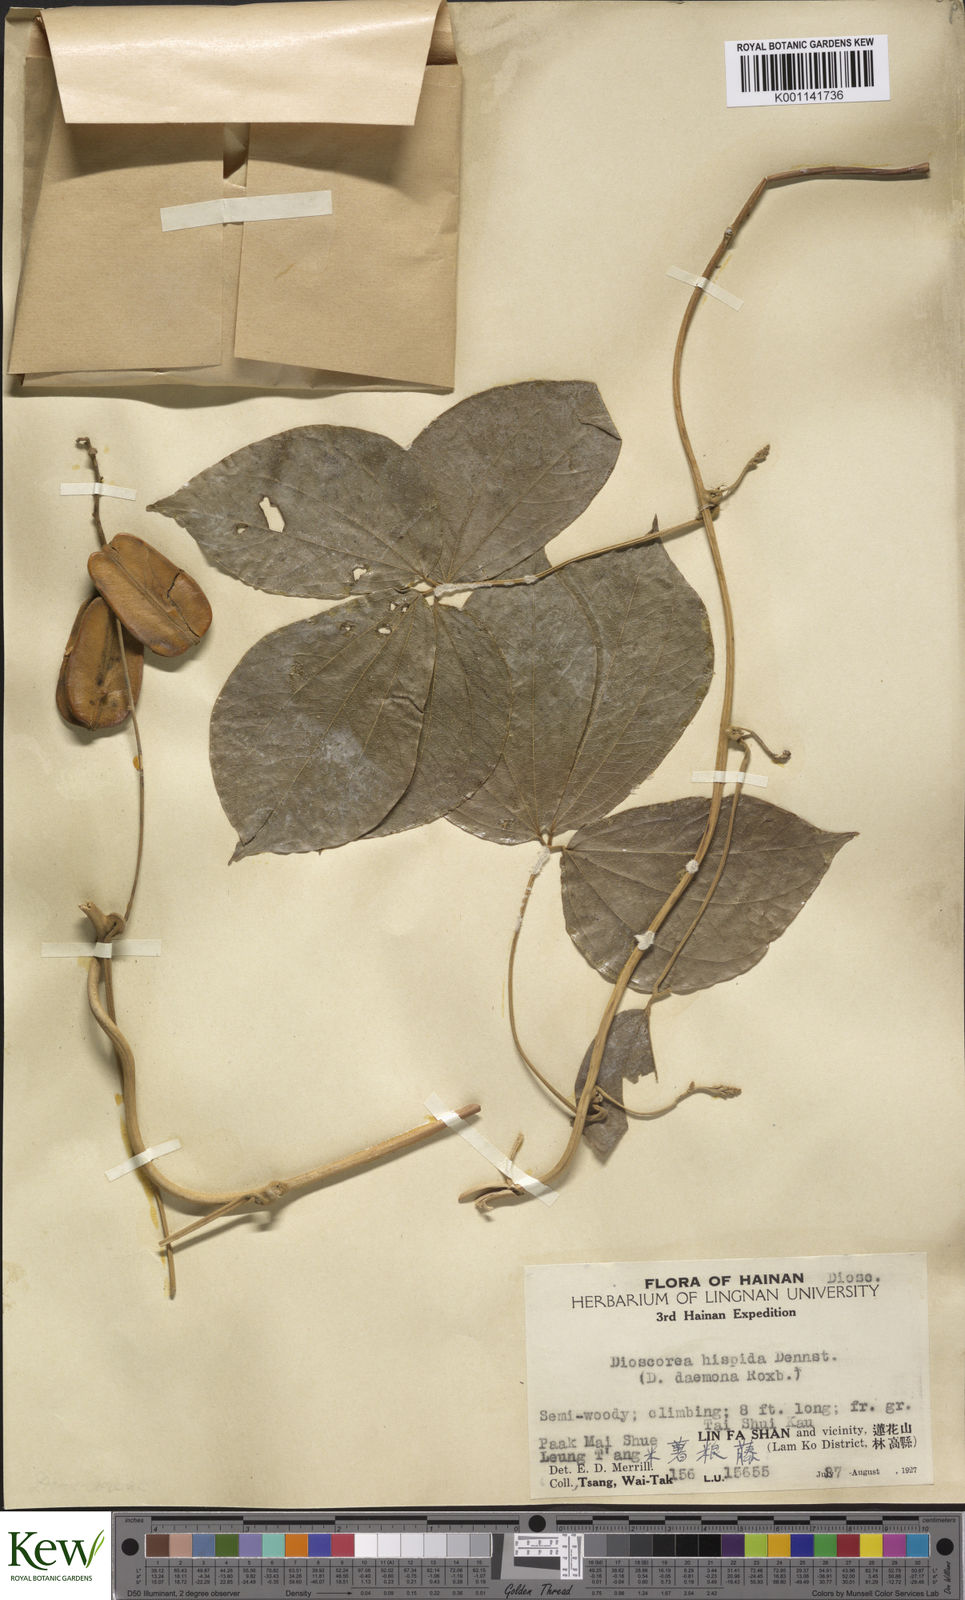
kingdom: Plantae
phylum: Tracheophyta
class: Liliopsida
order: Dioscoreales
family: Dioscoreaceae
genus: Dioscorea
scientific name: Dioscorea hispida
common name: Asiatic bitter yam
